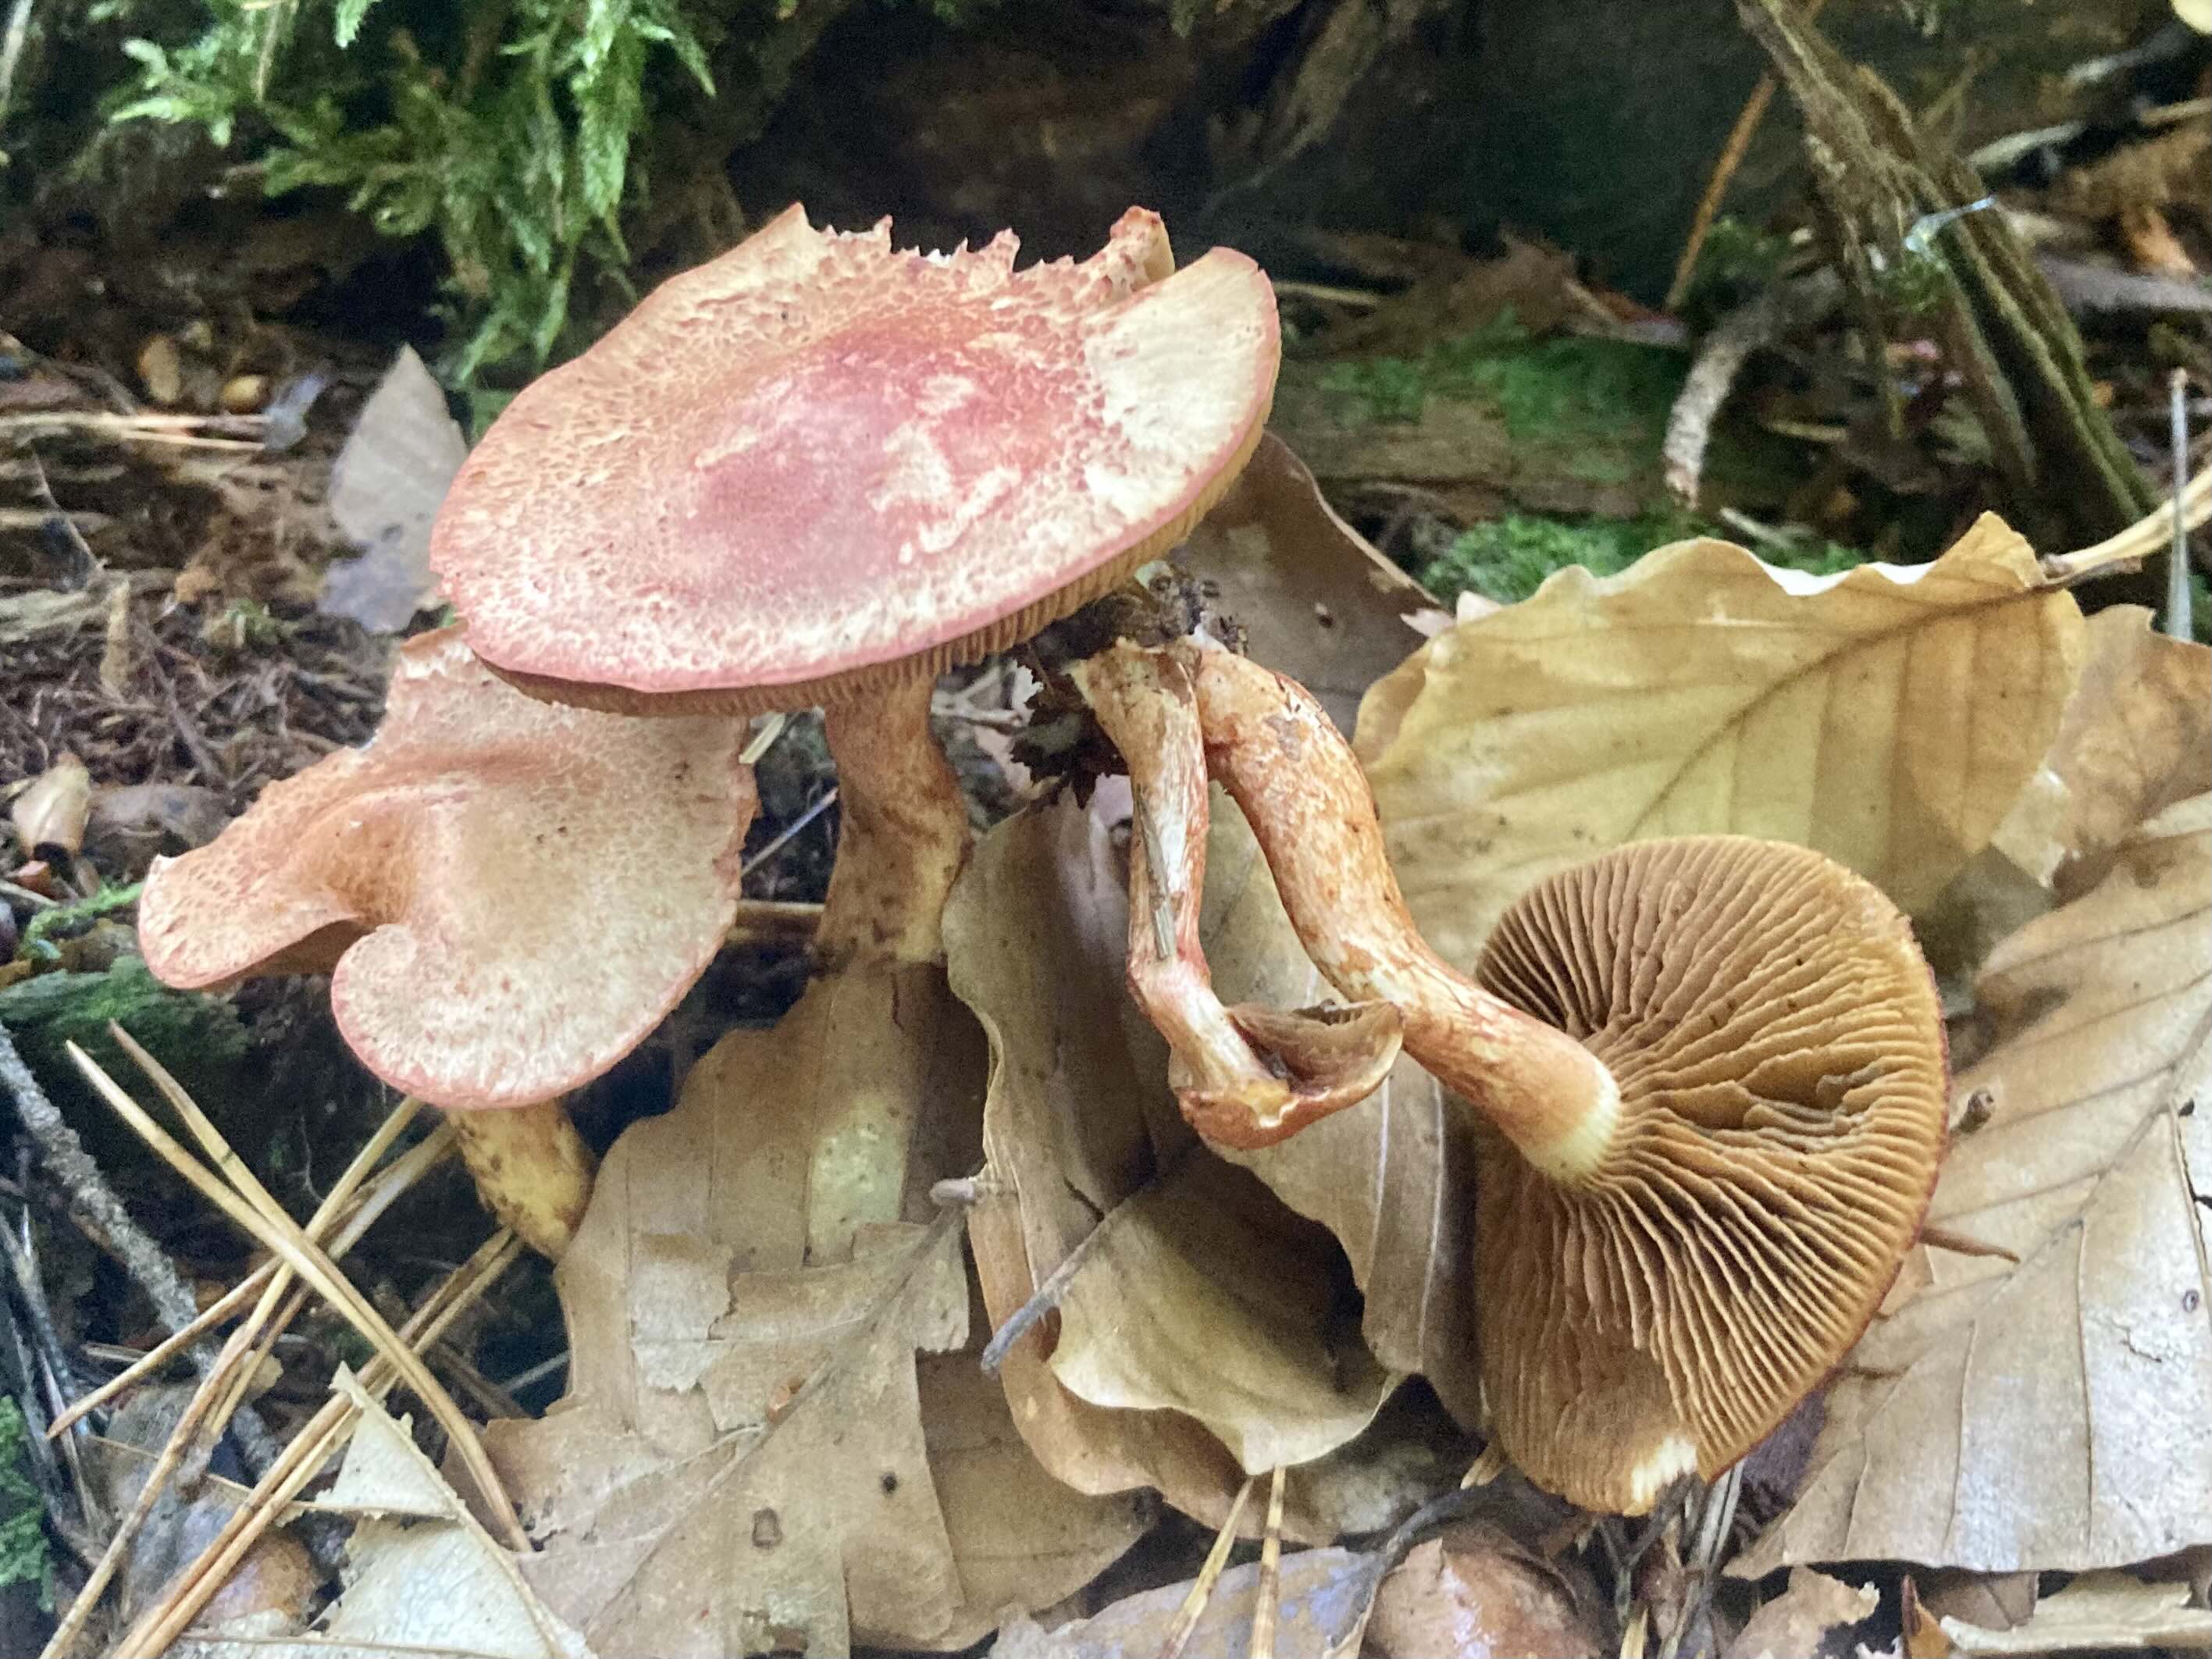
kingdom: Fungi
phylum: Basidiomycota
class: Agaricomycetes
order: Agaricales
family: Cortinariaceae
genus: Cortinarius
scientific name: Cortinarius bolaris
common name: cinnoberskællet slørhat
